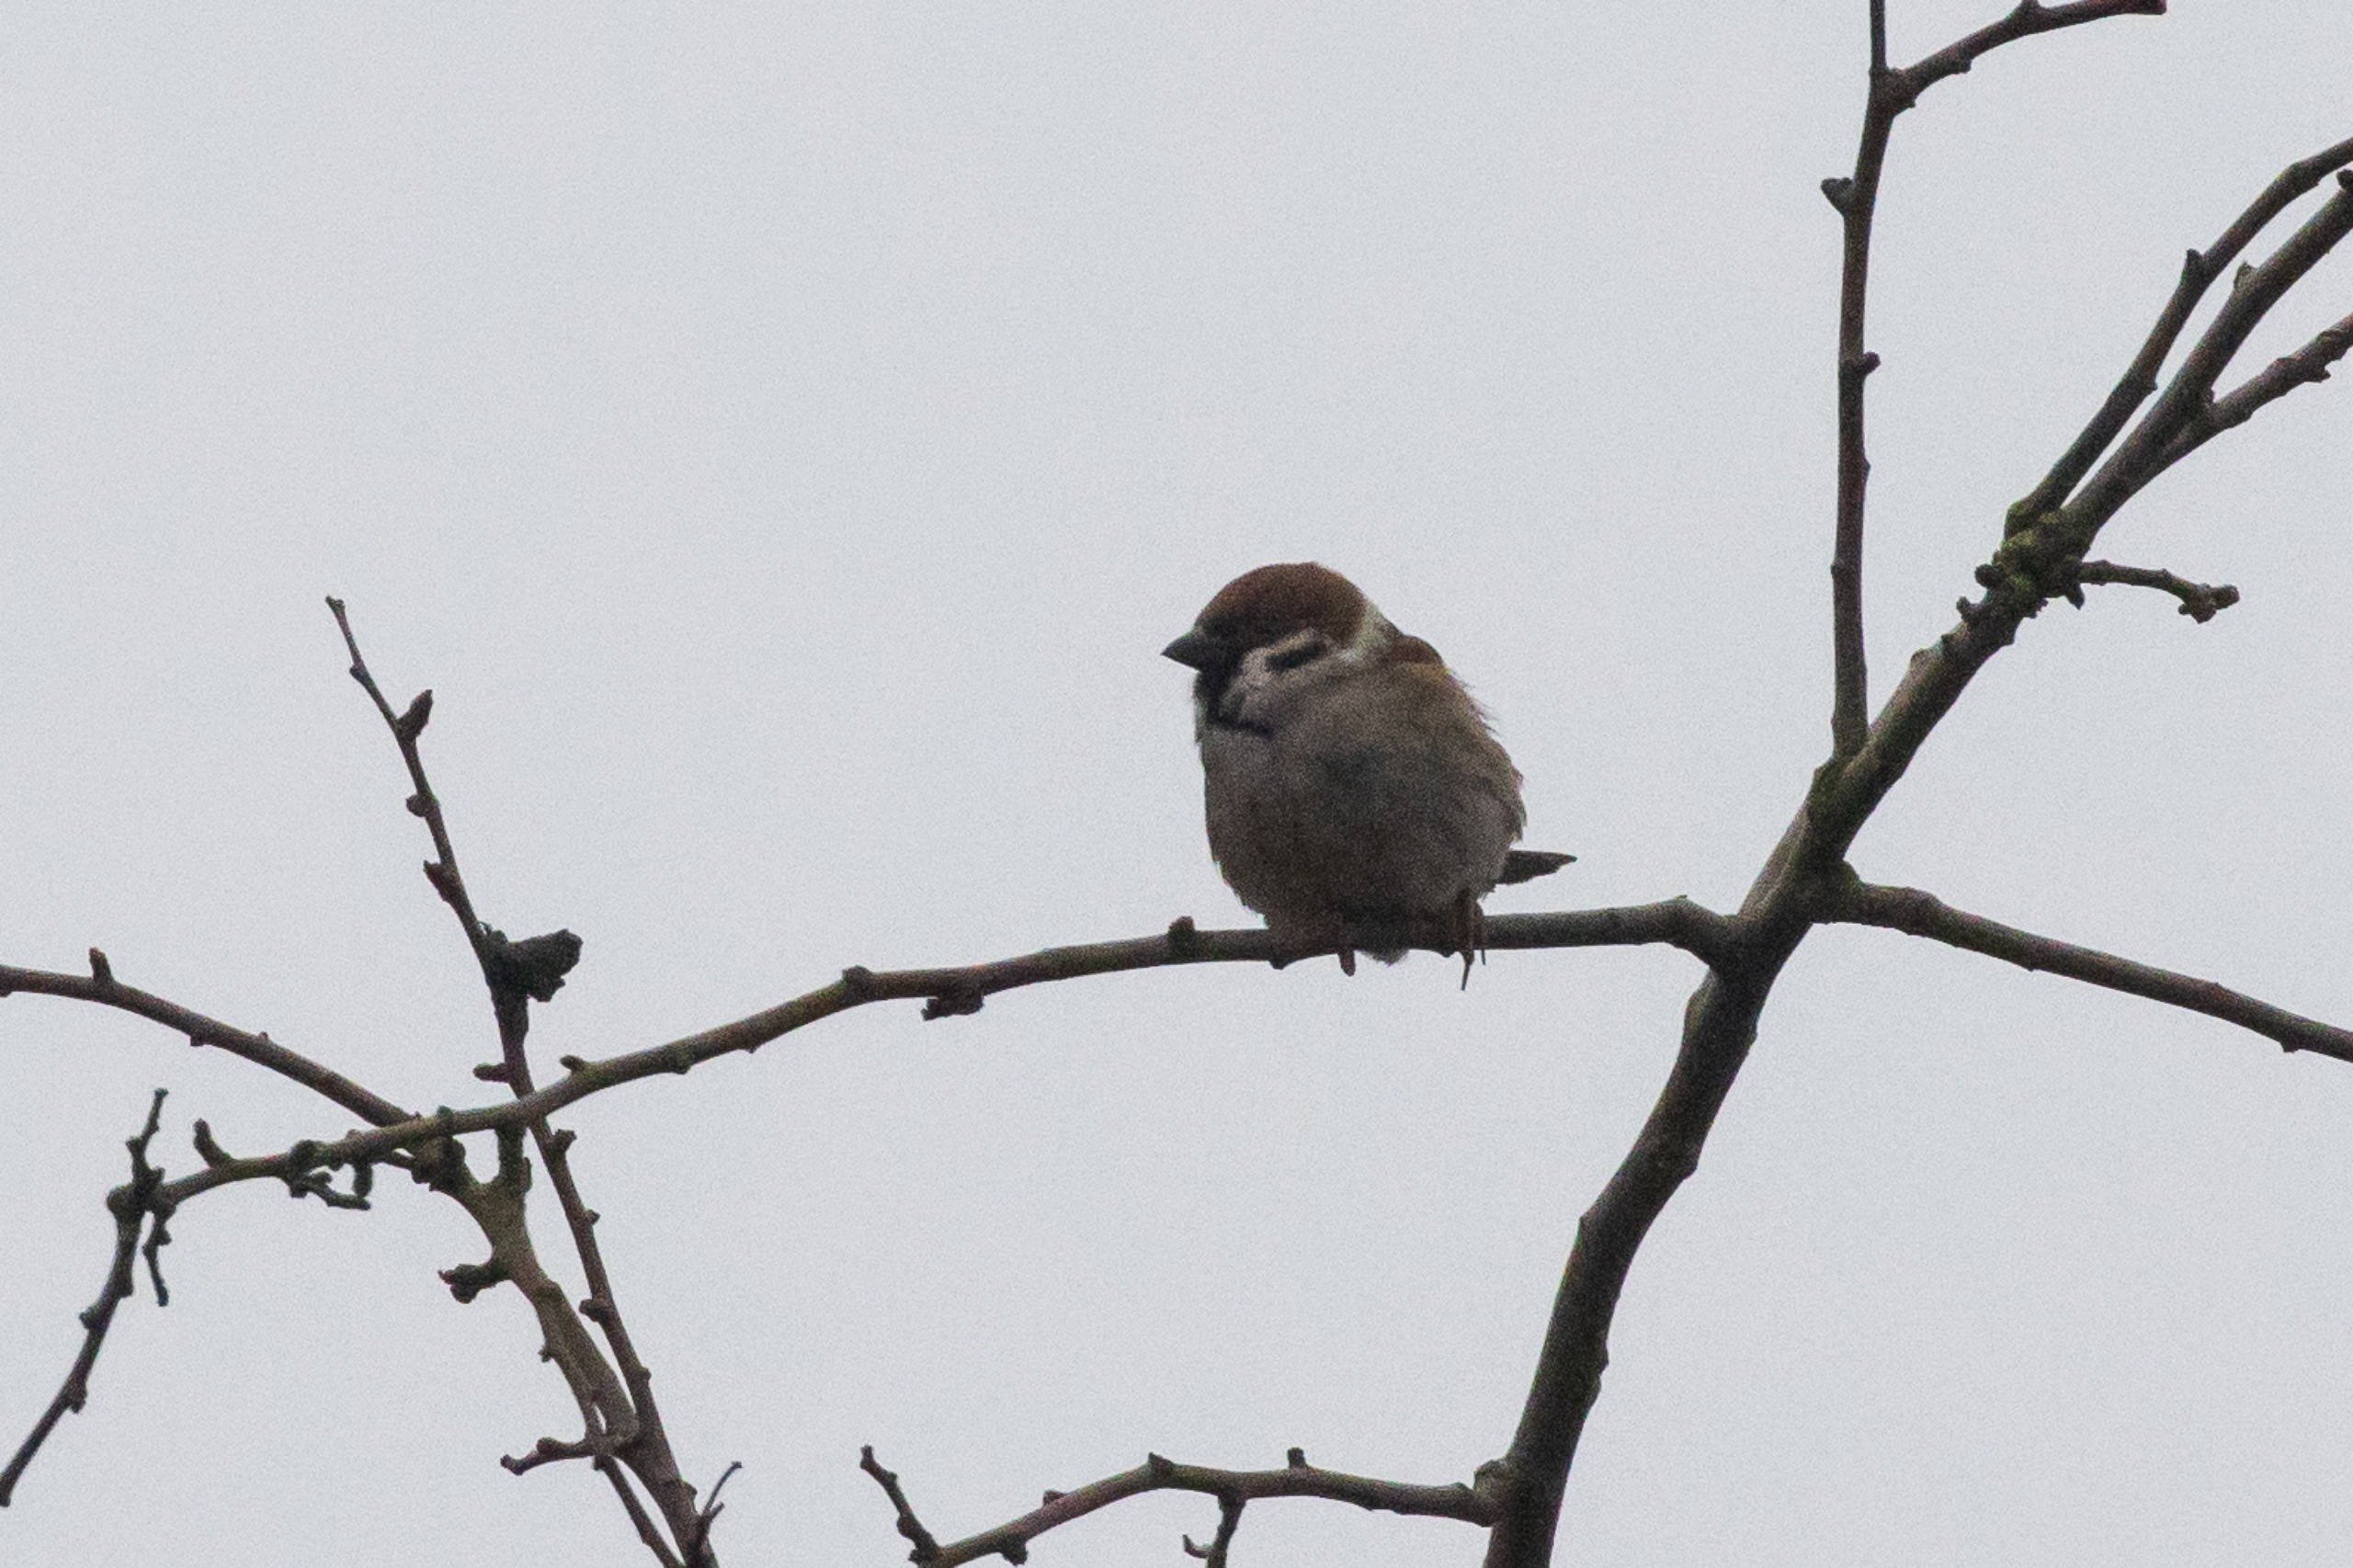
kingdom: Animalia
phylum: Chordata
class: Aves
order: Passeriformes
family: Passeridae
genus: Passer
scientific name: Passer montanus
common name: Skovspurv
